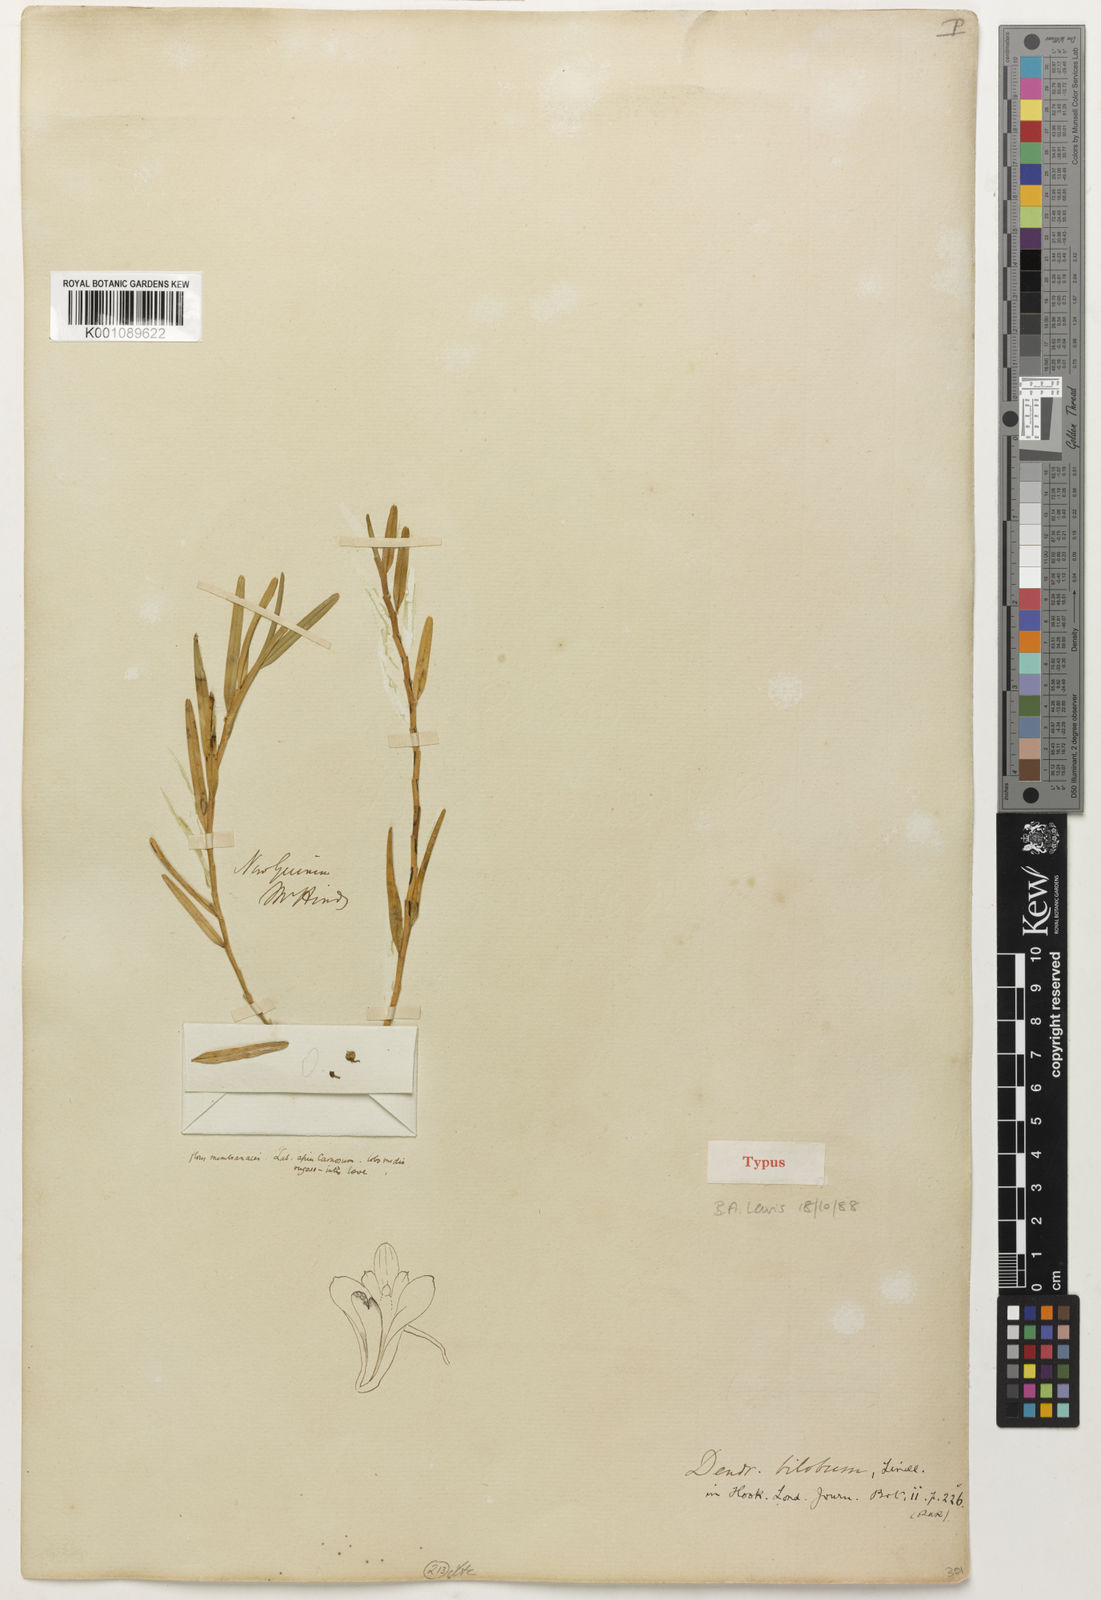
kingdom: Plantae
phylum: Tracheophyta
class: Liliopsida
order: Asparagales
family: Orchidaceae
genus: Dendrobium
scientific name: Dendrobium bilobum
